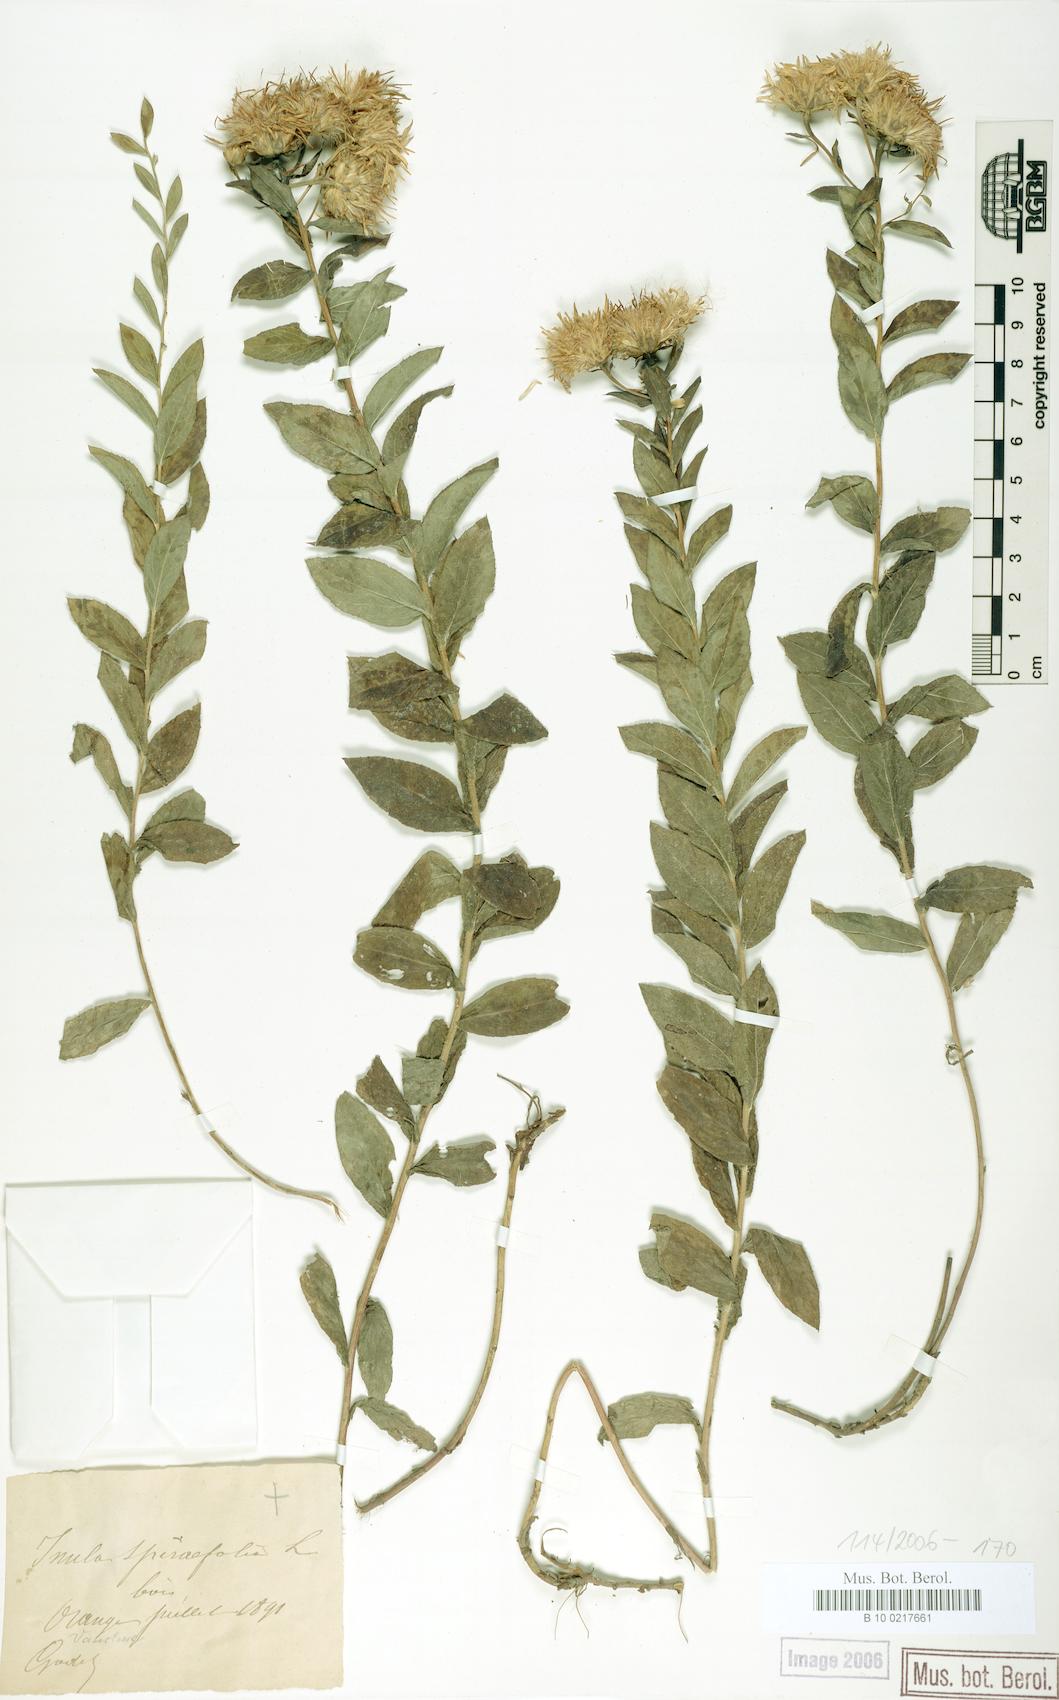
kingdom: Plantae
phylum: Tracheophyta
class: Magnoliopsida
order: Asterales
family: Asteraceae
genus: Pentanema
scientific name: Pentanema spiraeifolium
